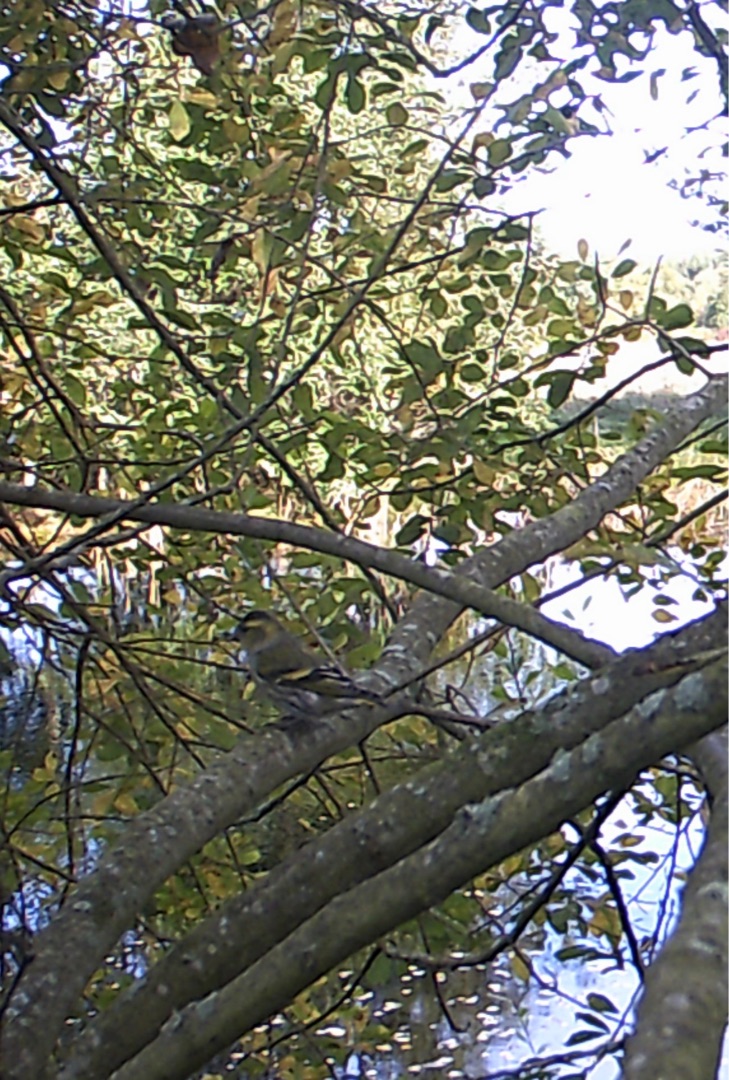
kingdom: Animalia
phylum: Chordata
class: Aves
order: Passeriformes
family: Fringillidae
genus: Spinus
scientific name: Spinus spinus
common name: Grønsisken
